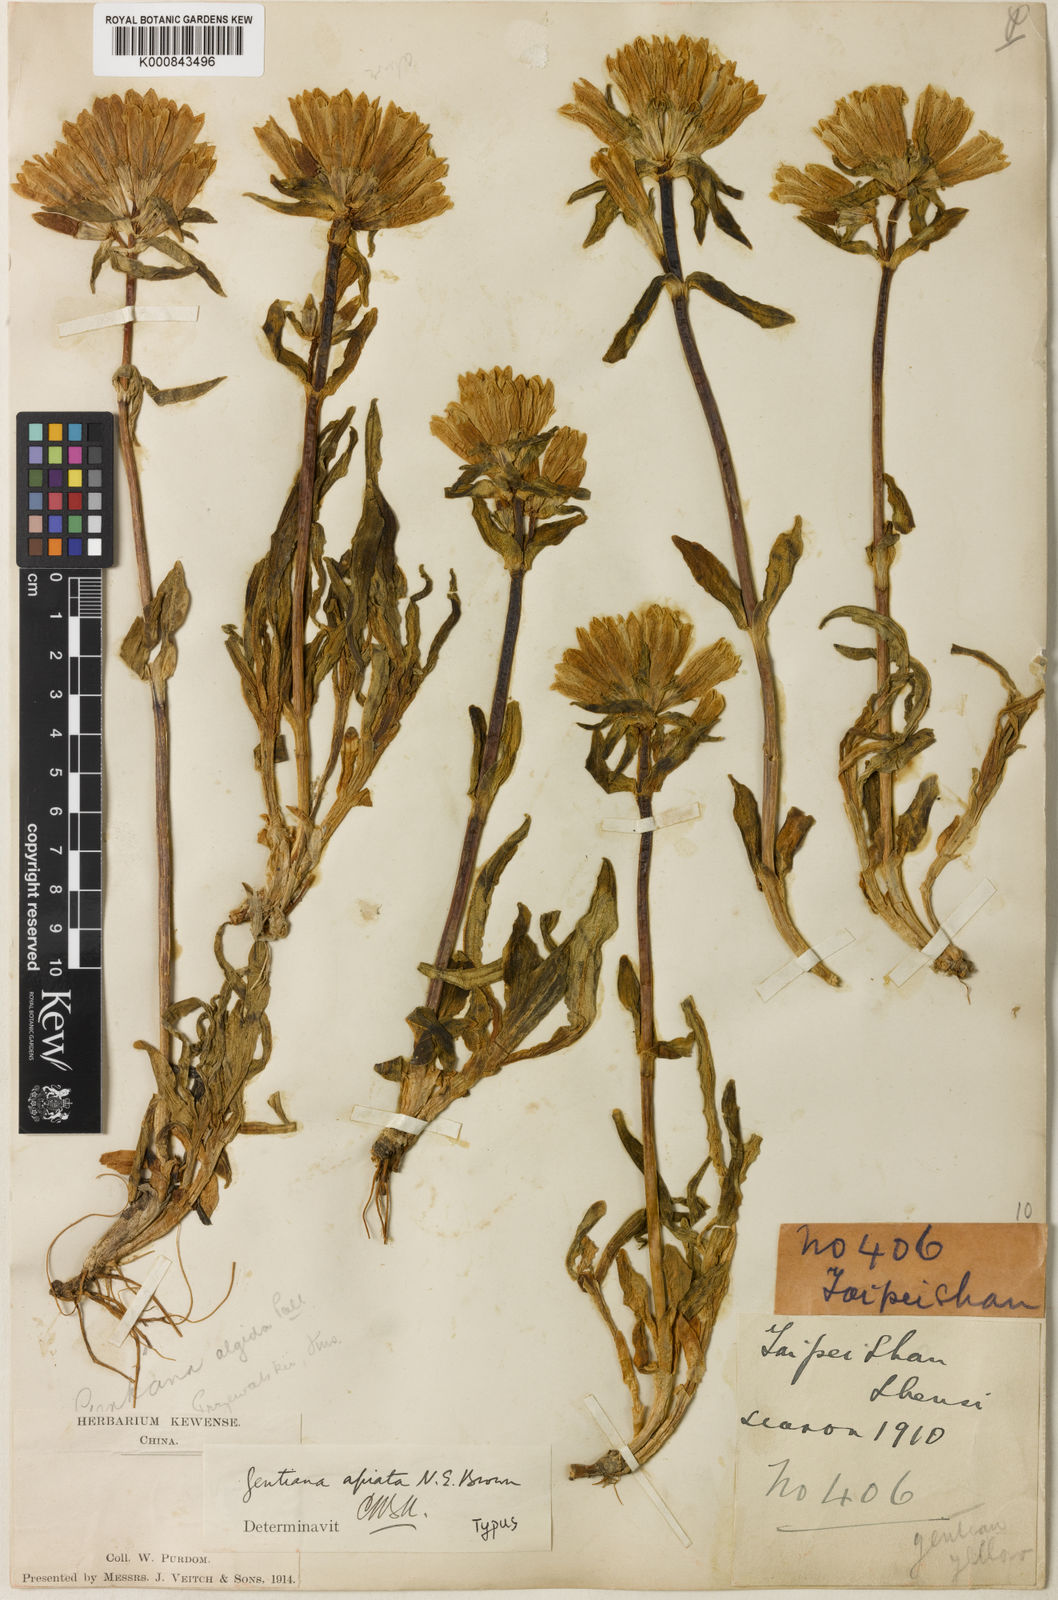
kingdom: Plantae
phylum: Tracheophyta
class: Magnoliopsida
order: Gentianales
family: Gentianaceae
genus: Gentiana
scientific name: Gentiana
